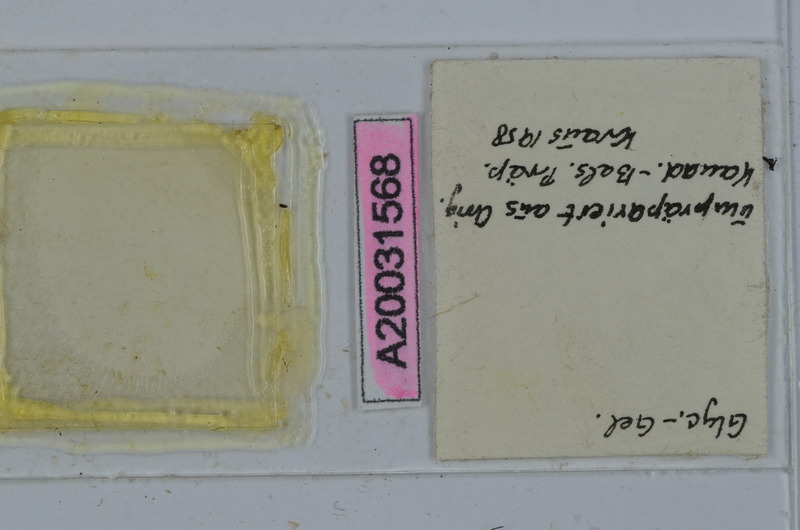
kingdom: Animalia
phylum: Arthropoda
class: Diplopoda
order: Spirostreptida
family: Spirostreptidae
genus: Nanostreptus
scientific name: Nanostreptus armatus
